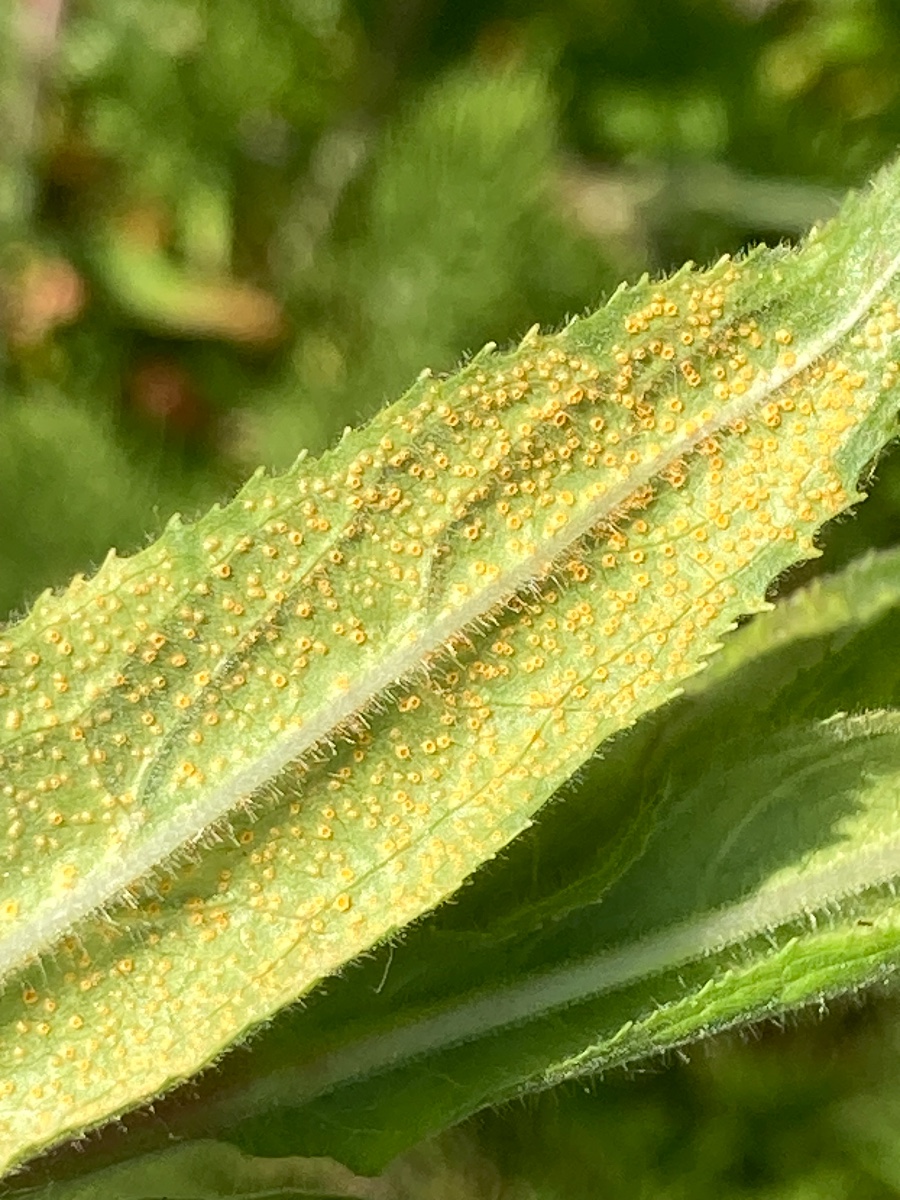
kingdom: Fungi
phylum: Basidiomycota
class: Pucciniomycetes
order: Pucciniales
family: Pucciniaceae
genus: Puccinia
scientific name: Puccinia pulverulenta
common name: dueurt-tvecellerust
